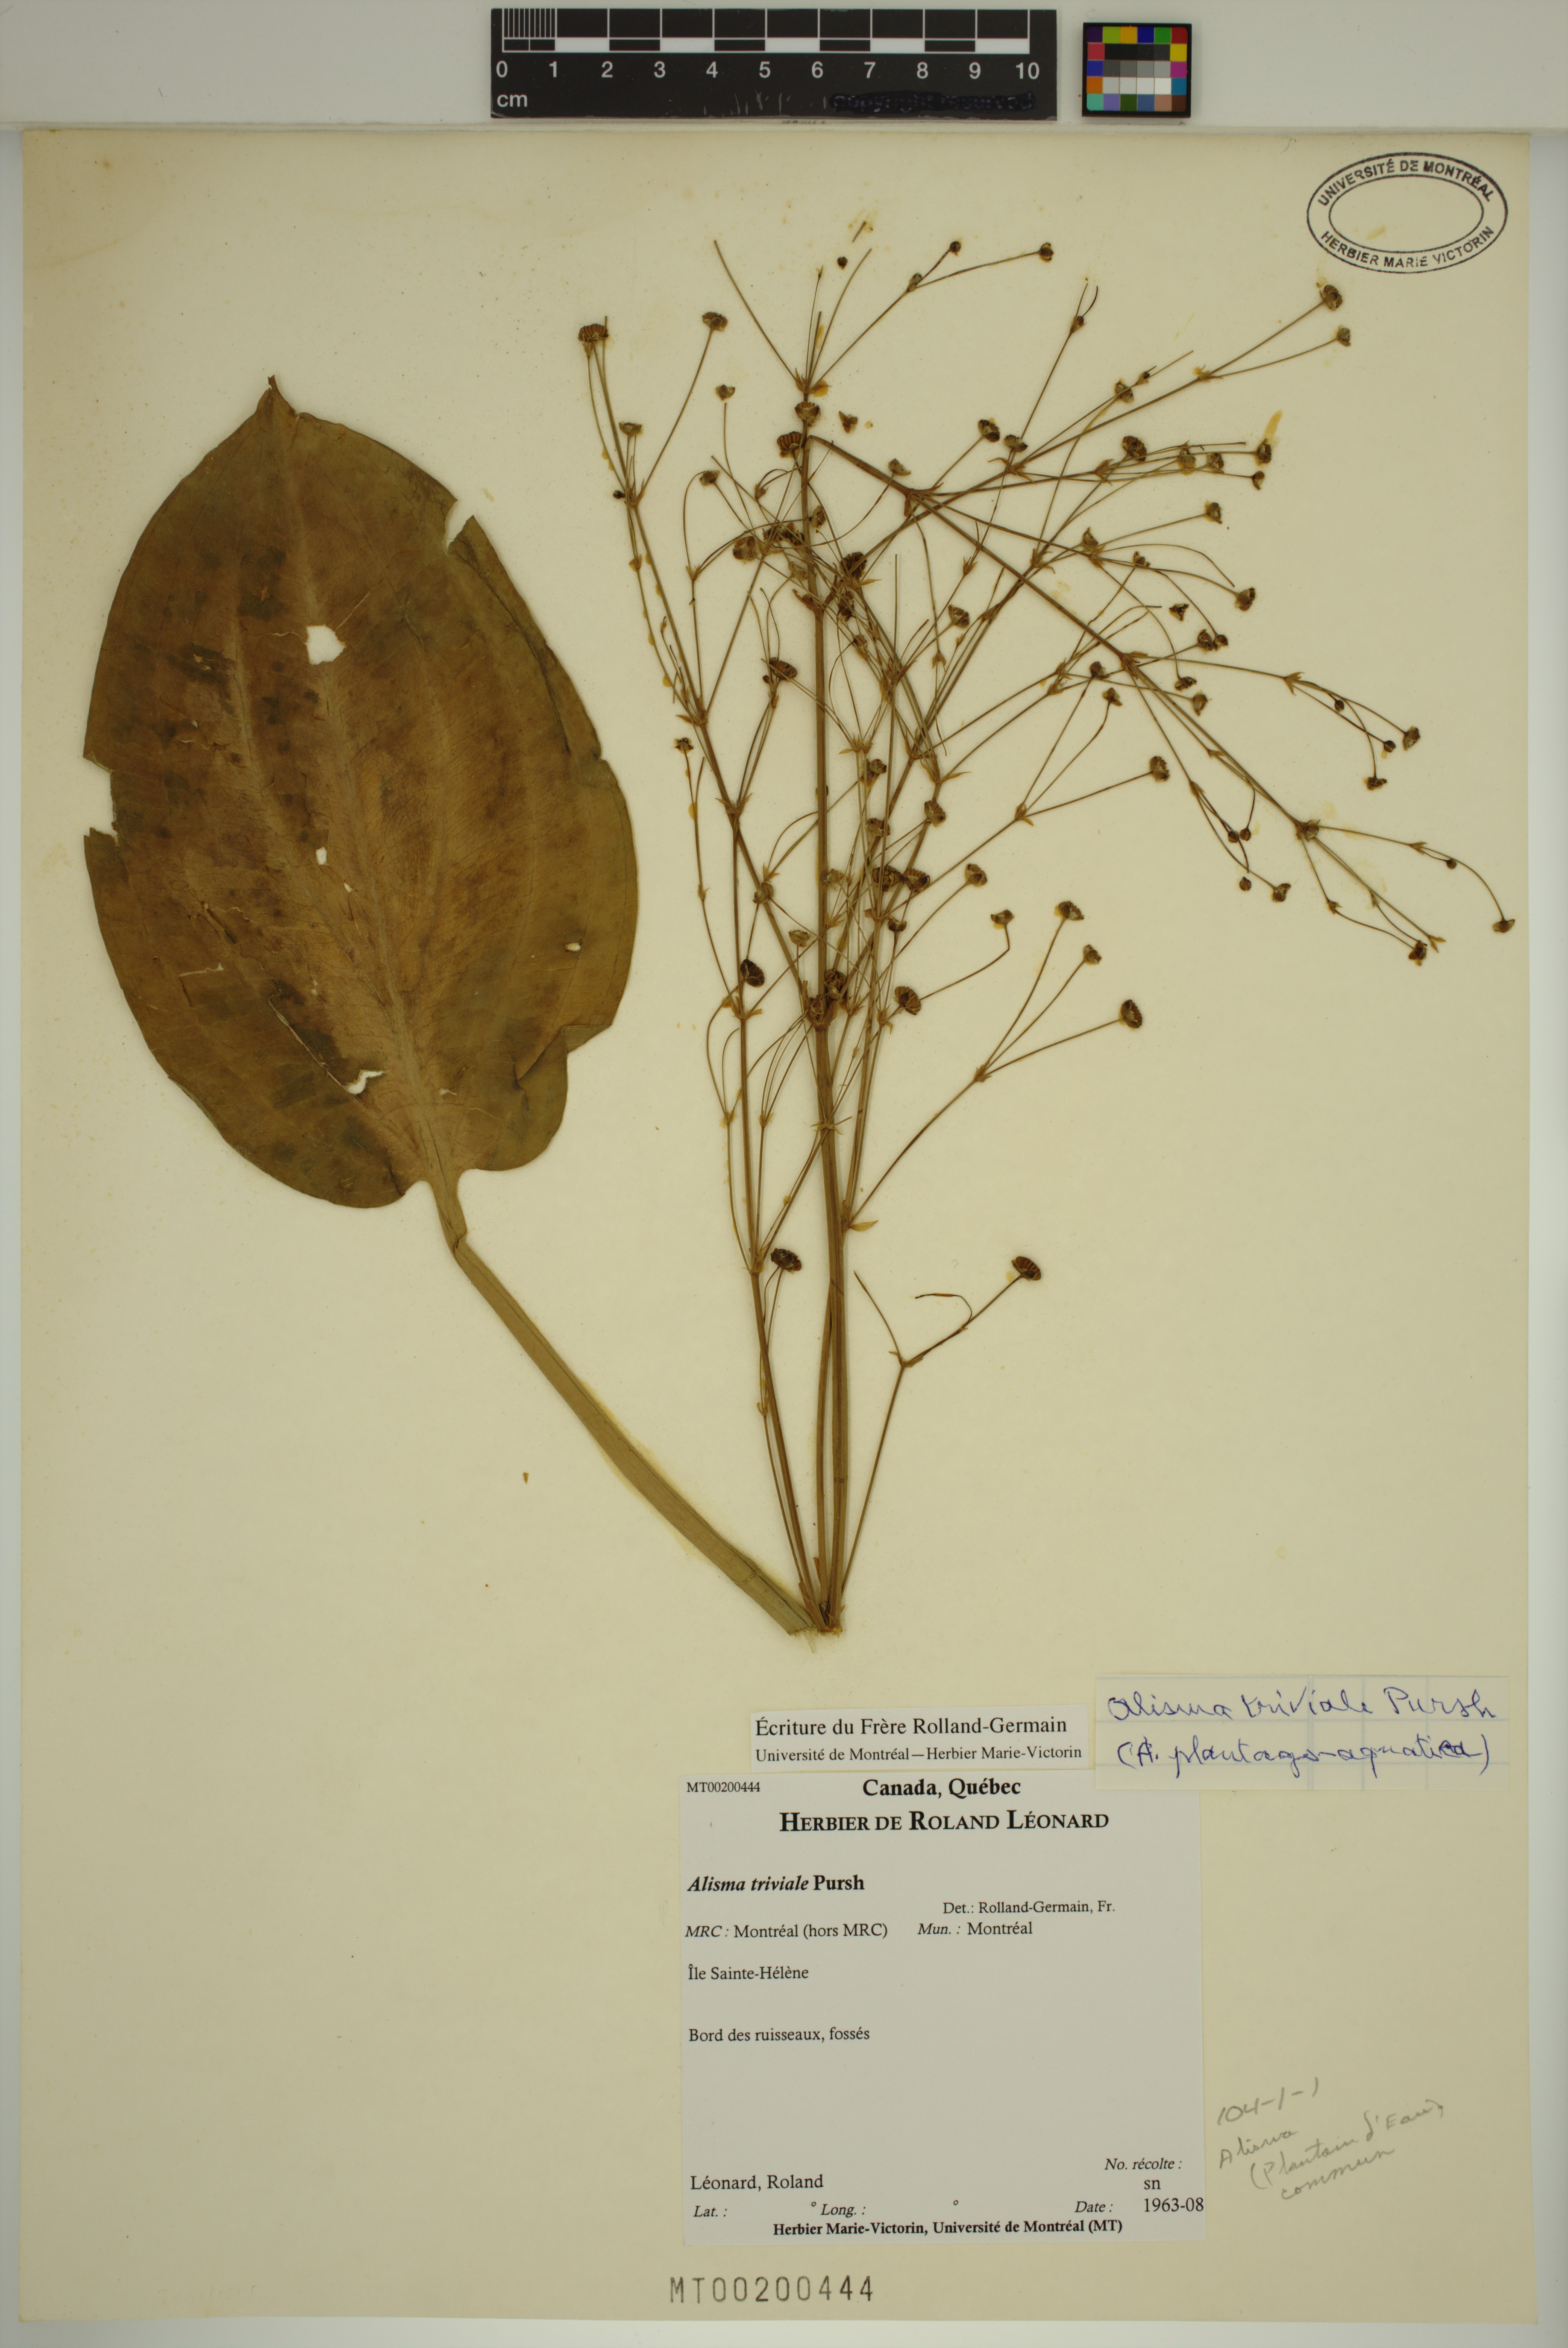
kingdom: Plantae
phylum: Tracheophyta
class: Liliopsida
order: Alismatales
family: Alismataceae
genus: Alisma
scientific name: Alisma triviale
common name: Northern water-plantain
